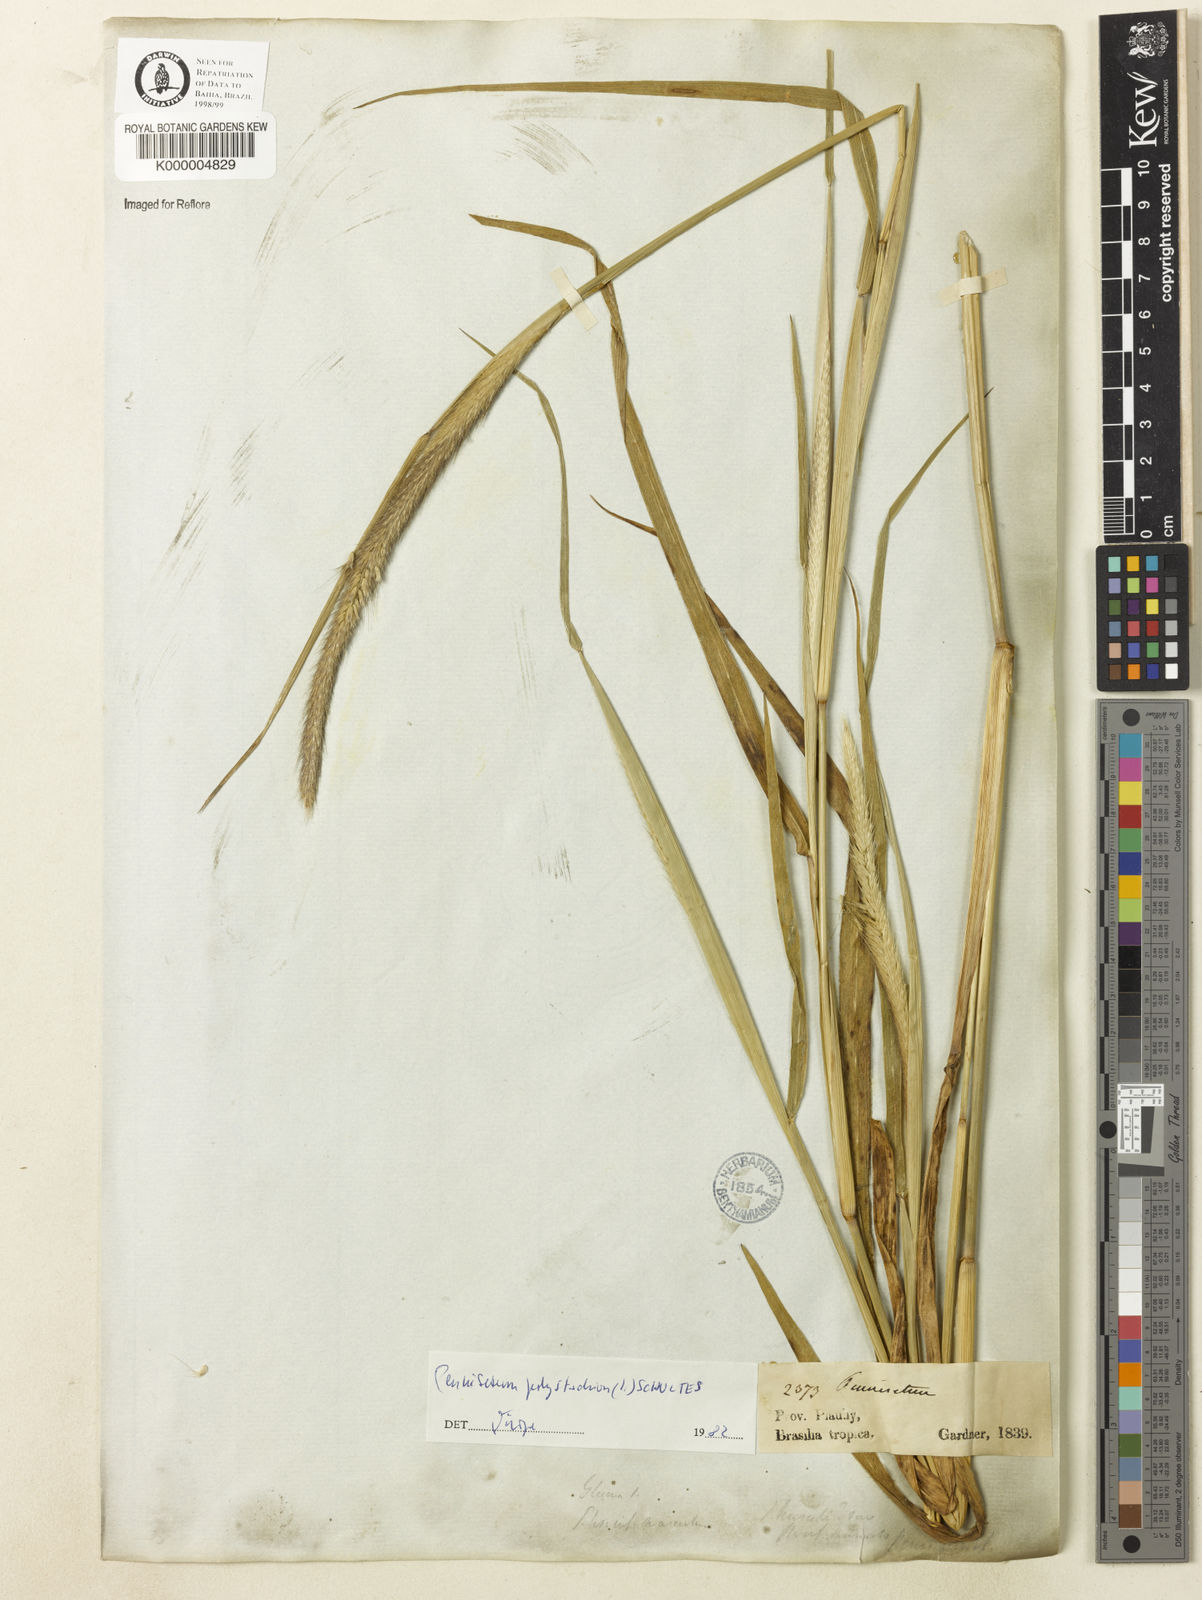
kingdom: Plantae
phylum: Tracheophyta
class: Liliopsida
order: Poales
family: Poaceae
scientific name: Poaceae
